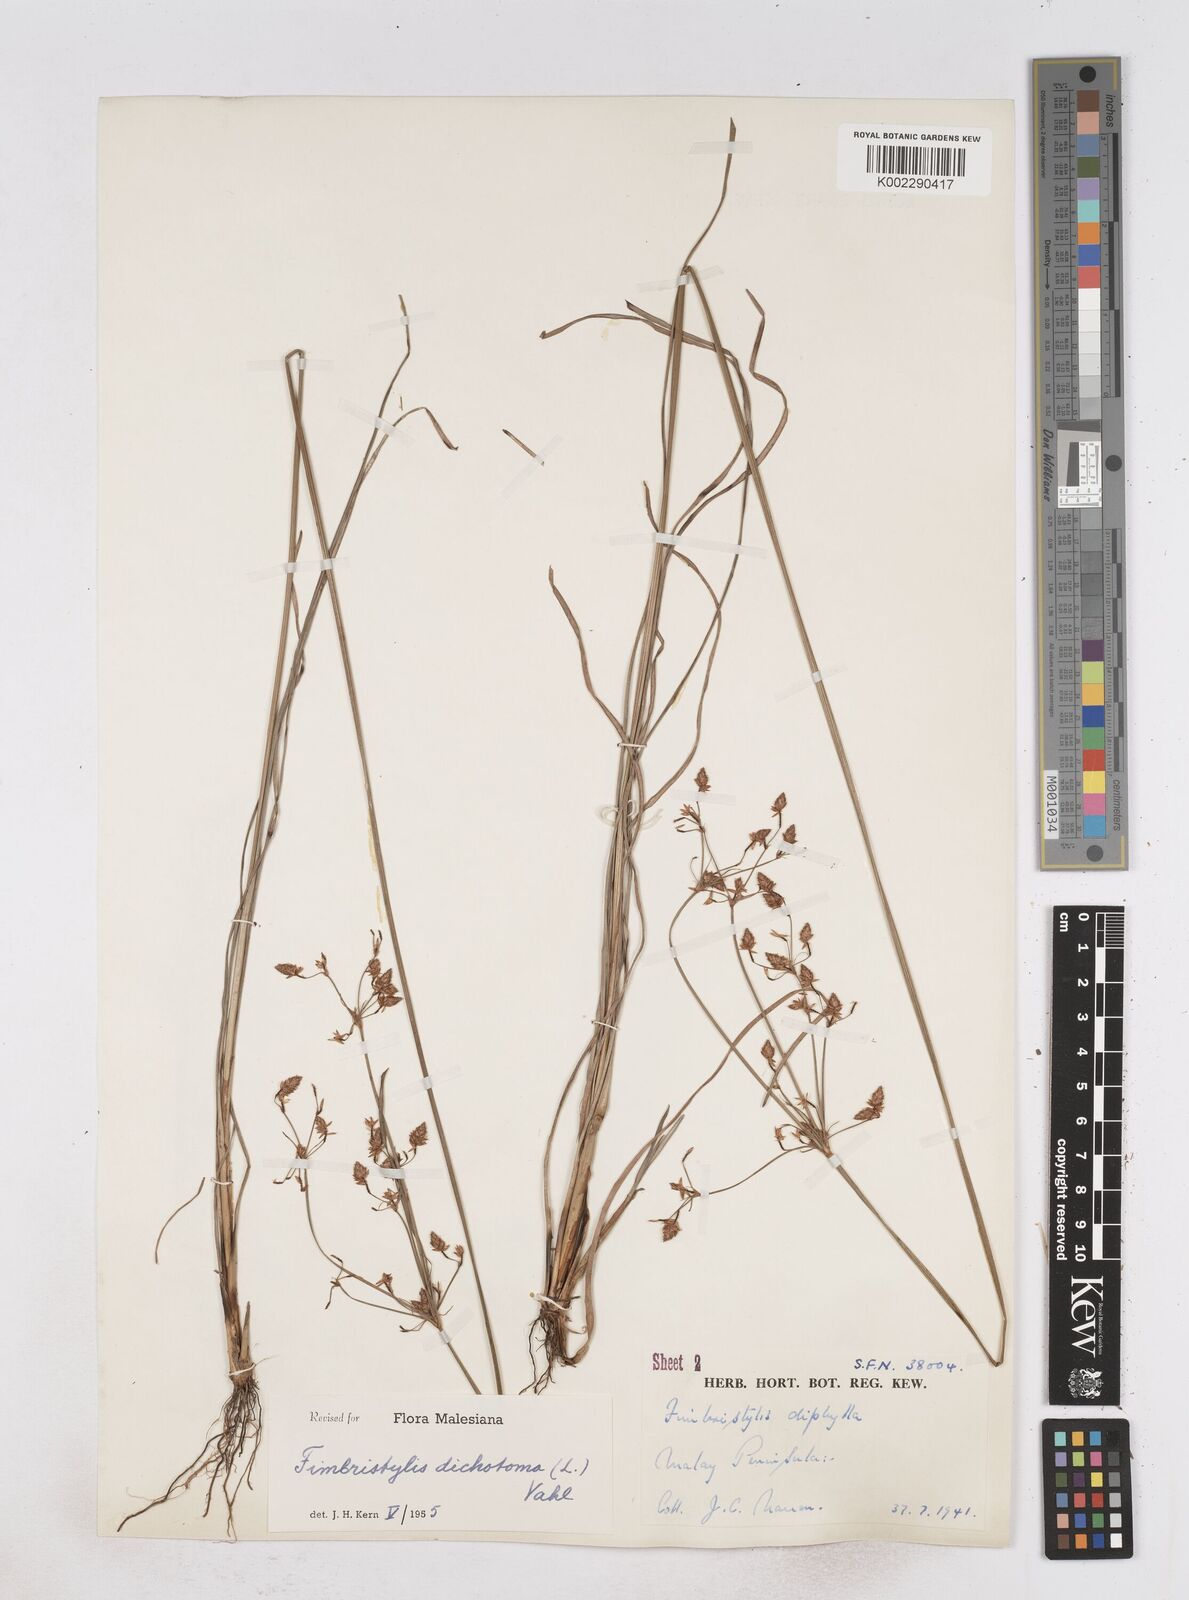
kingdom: Plantae
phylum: Tracheophyta
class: Liliopsida
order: Poales
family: Cyperaceae
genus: Fimbristylis
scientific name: Fimbristylis dichotoma
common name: Forked fimbry
